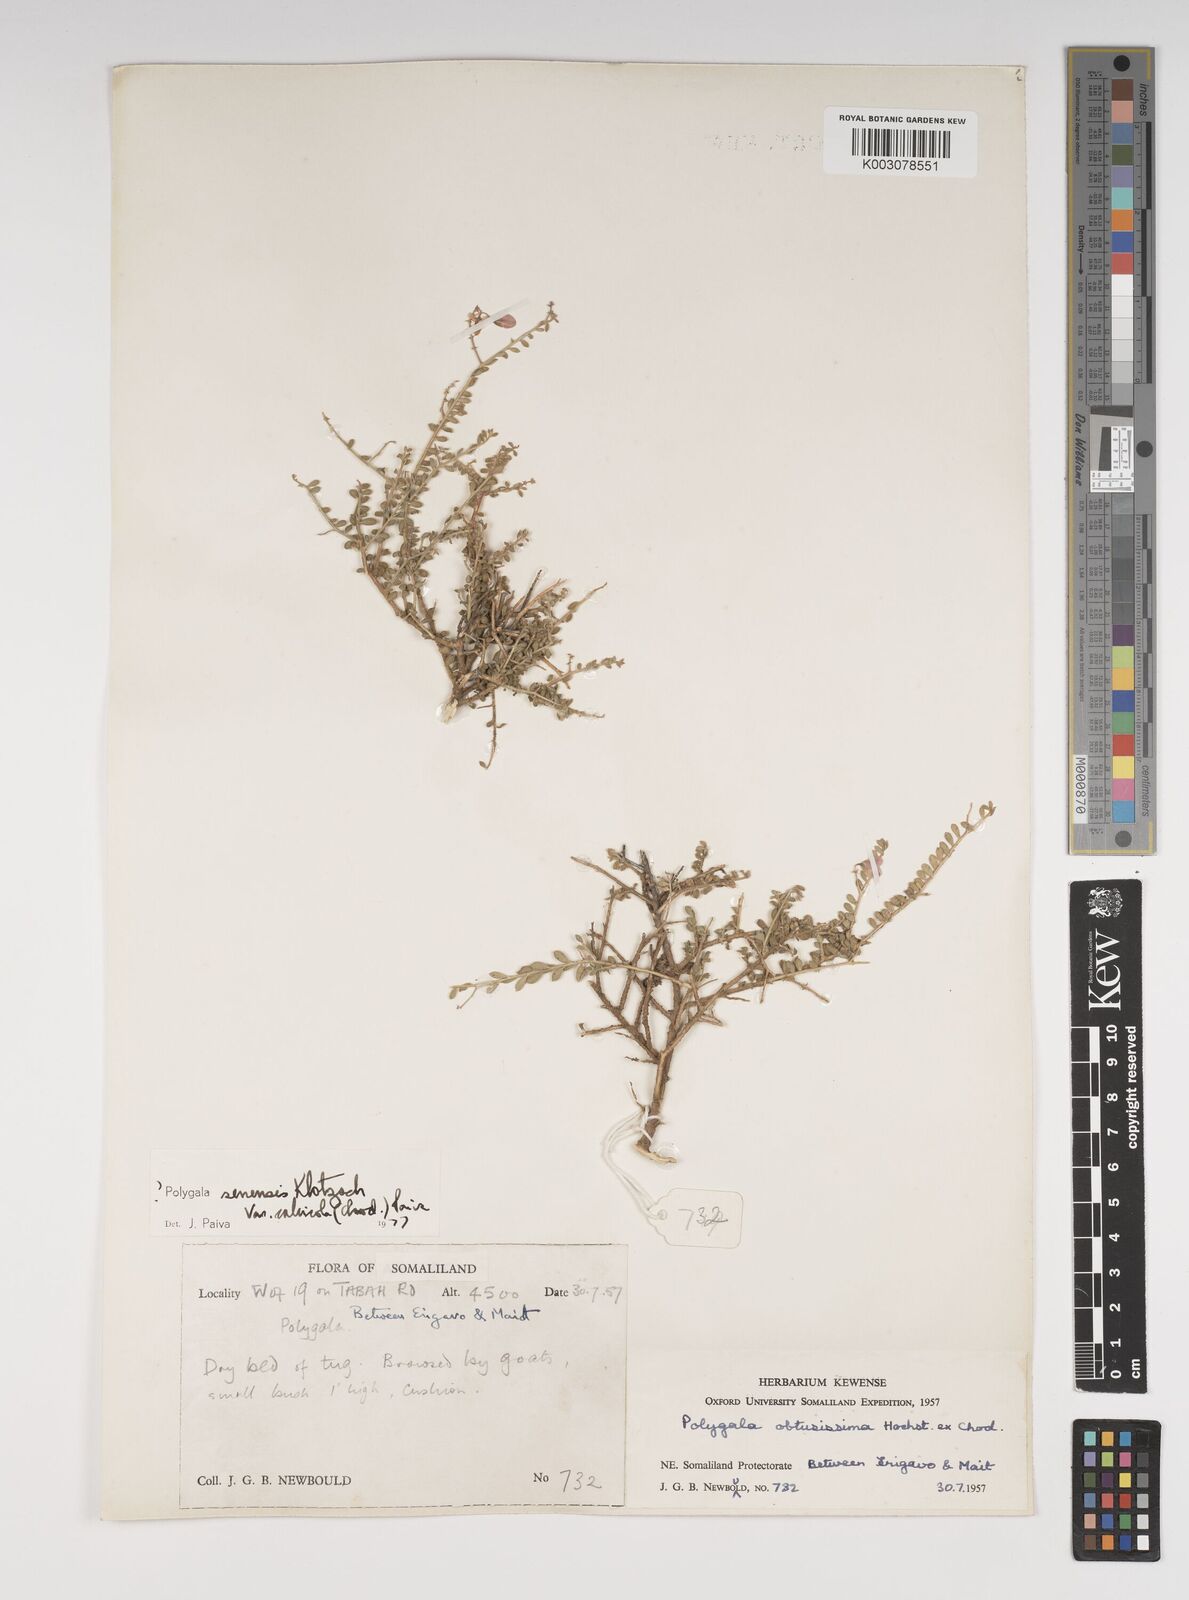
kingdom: Plantae
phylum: Tracheophyta
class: Magnoliopsida
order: Fabales
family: Polygalaceae
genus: Polygala
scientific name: Polygala obtusissima
